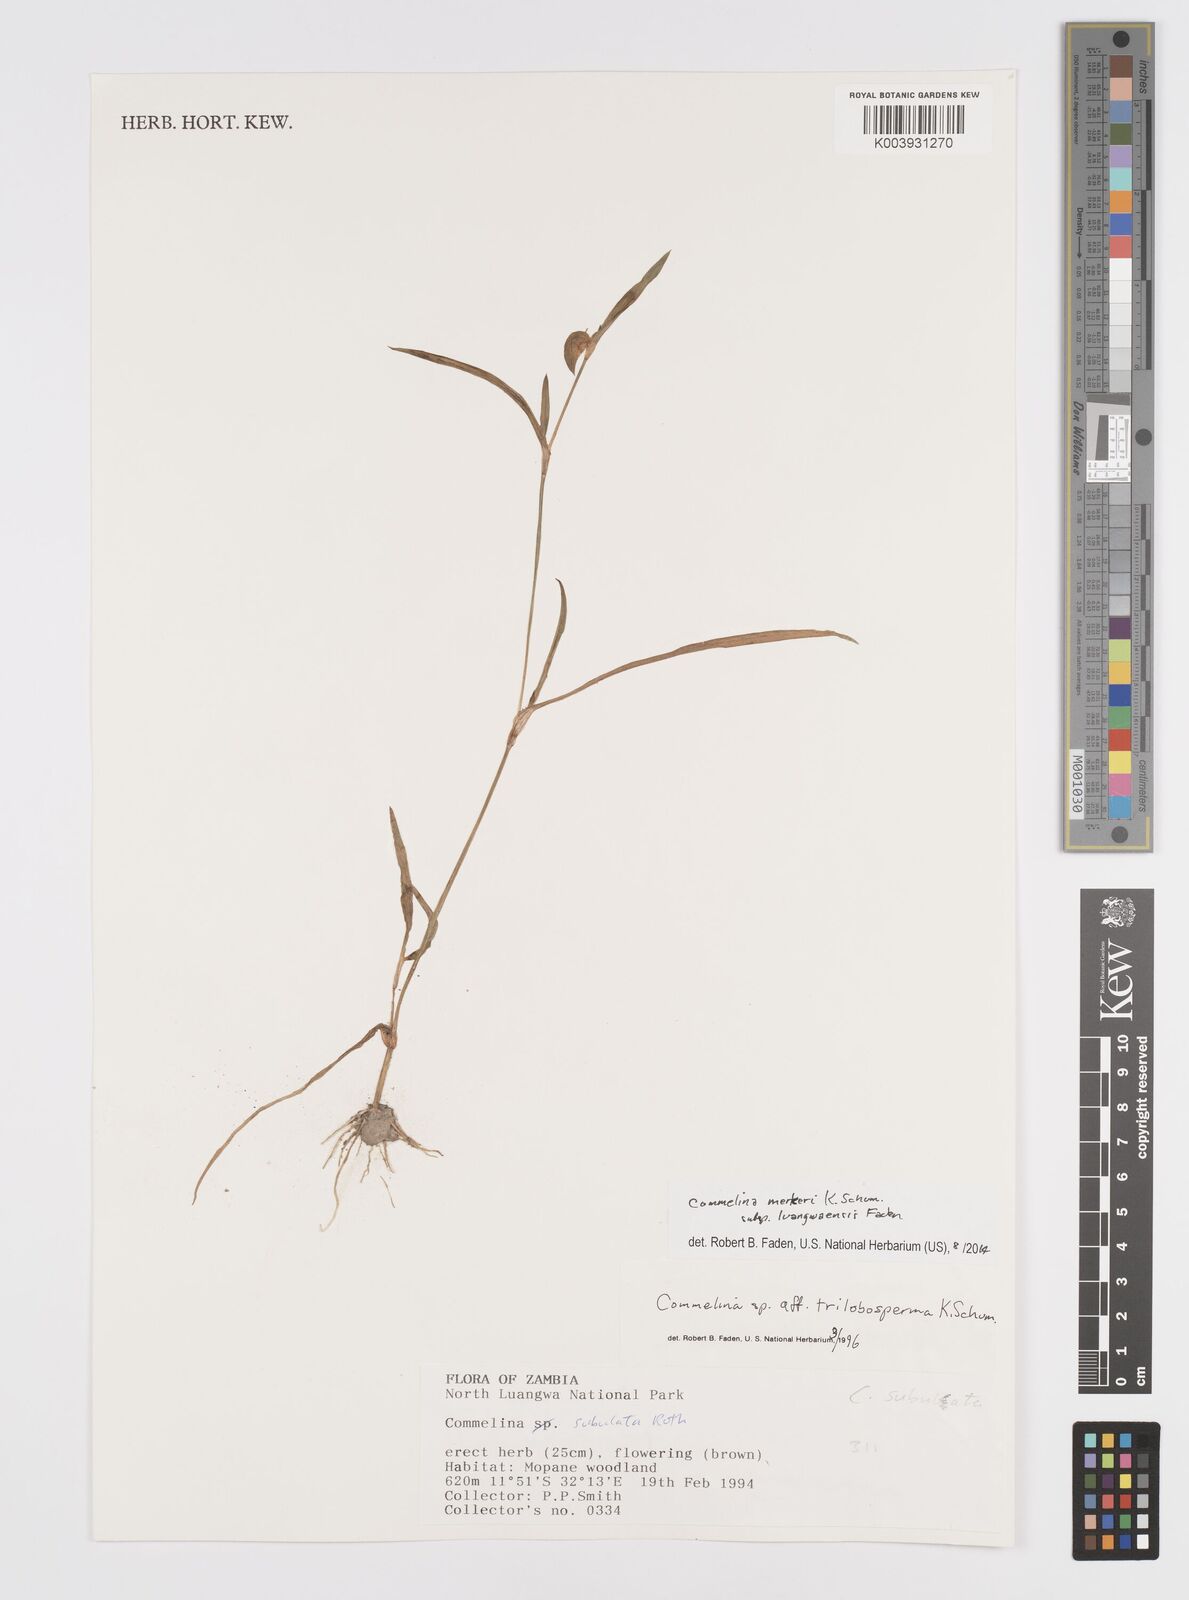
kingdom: Plantae
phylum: Tracheophyta
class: Liliopsida
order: Commelinales
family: Commelinaceae
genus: Commelina
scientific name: Commelina merkeri
